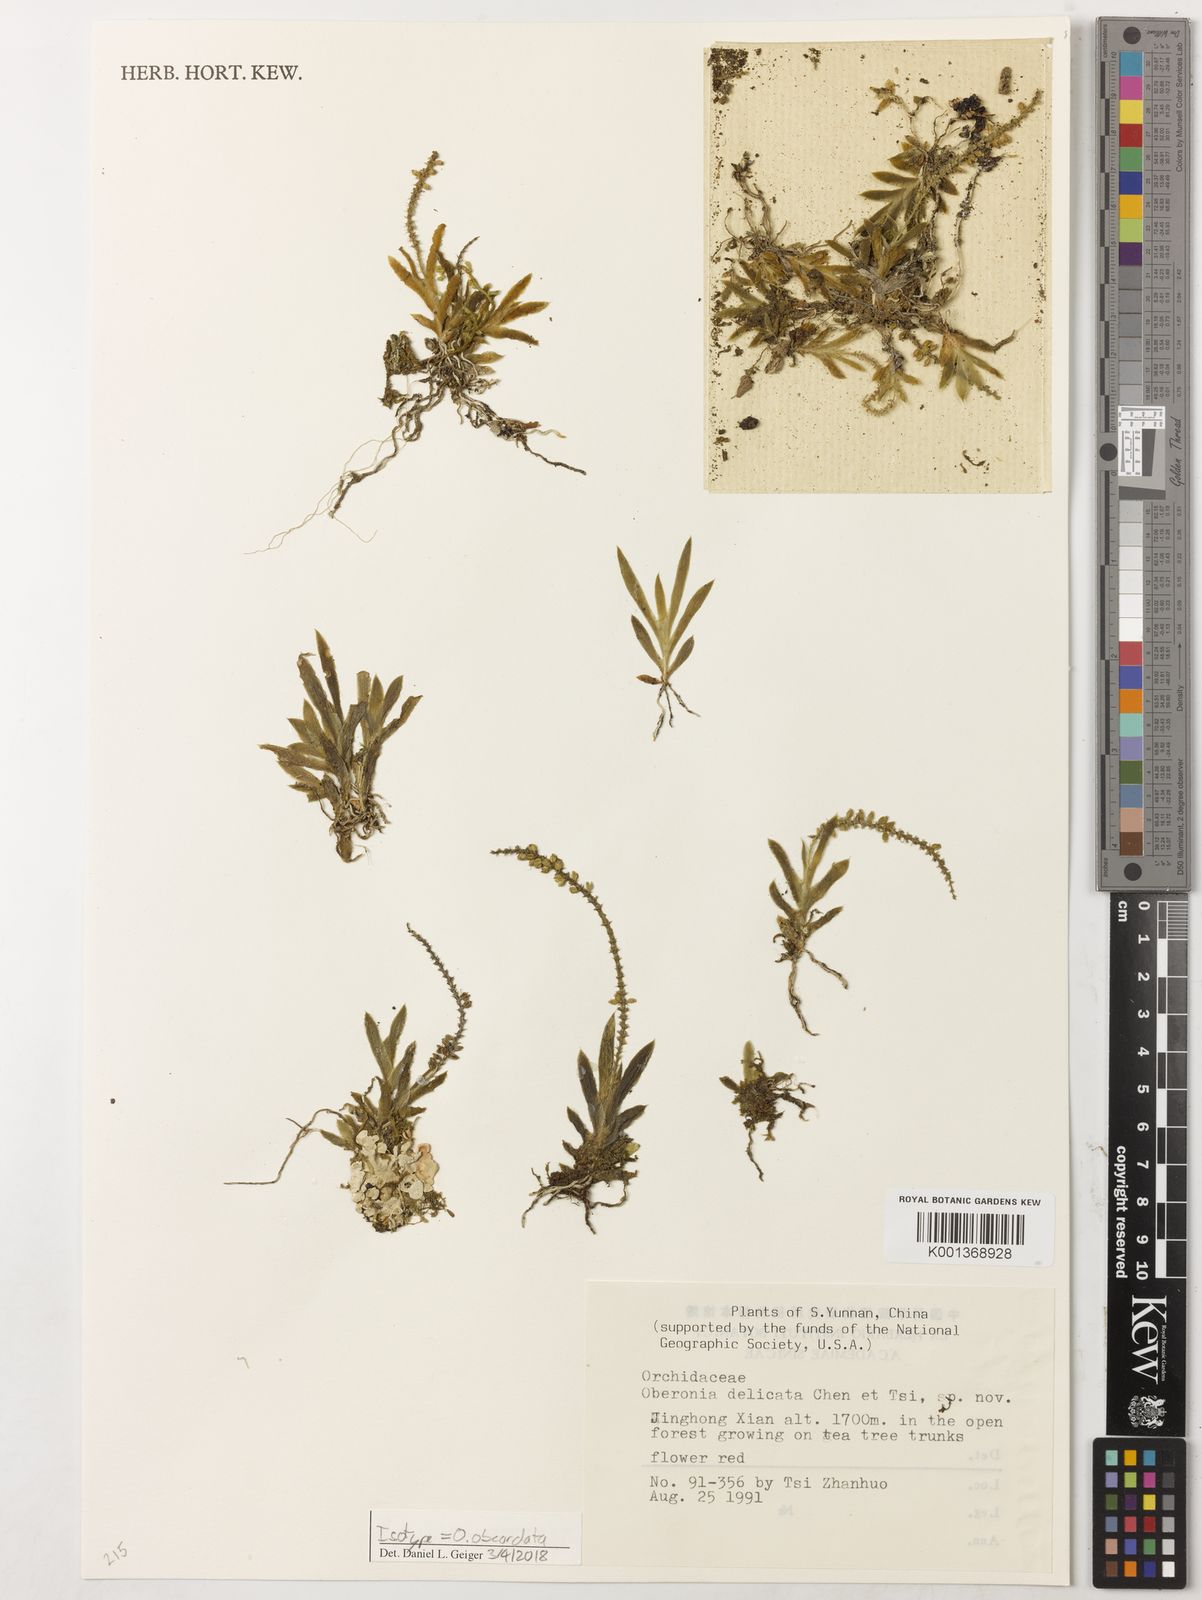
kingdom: Plantae
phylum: Tracheophyta
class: Liliopsida
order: Asparagales
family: Orchidaceae
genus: Oberonia
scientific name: Oberonia obcordata
